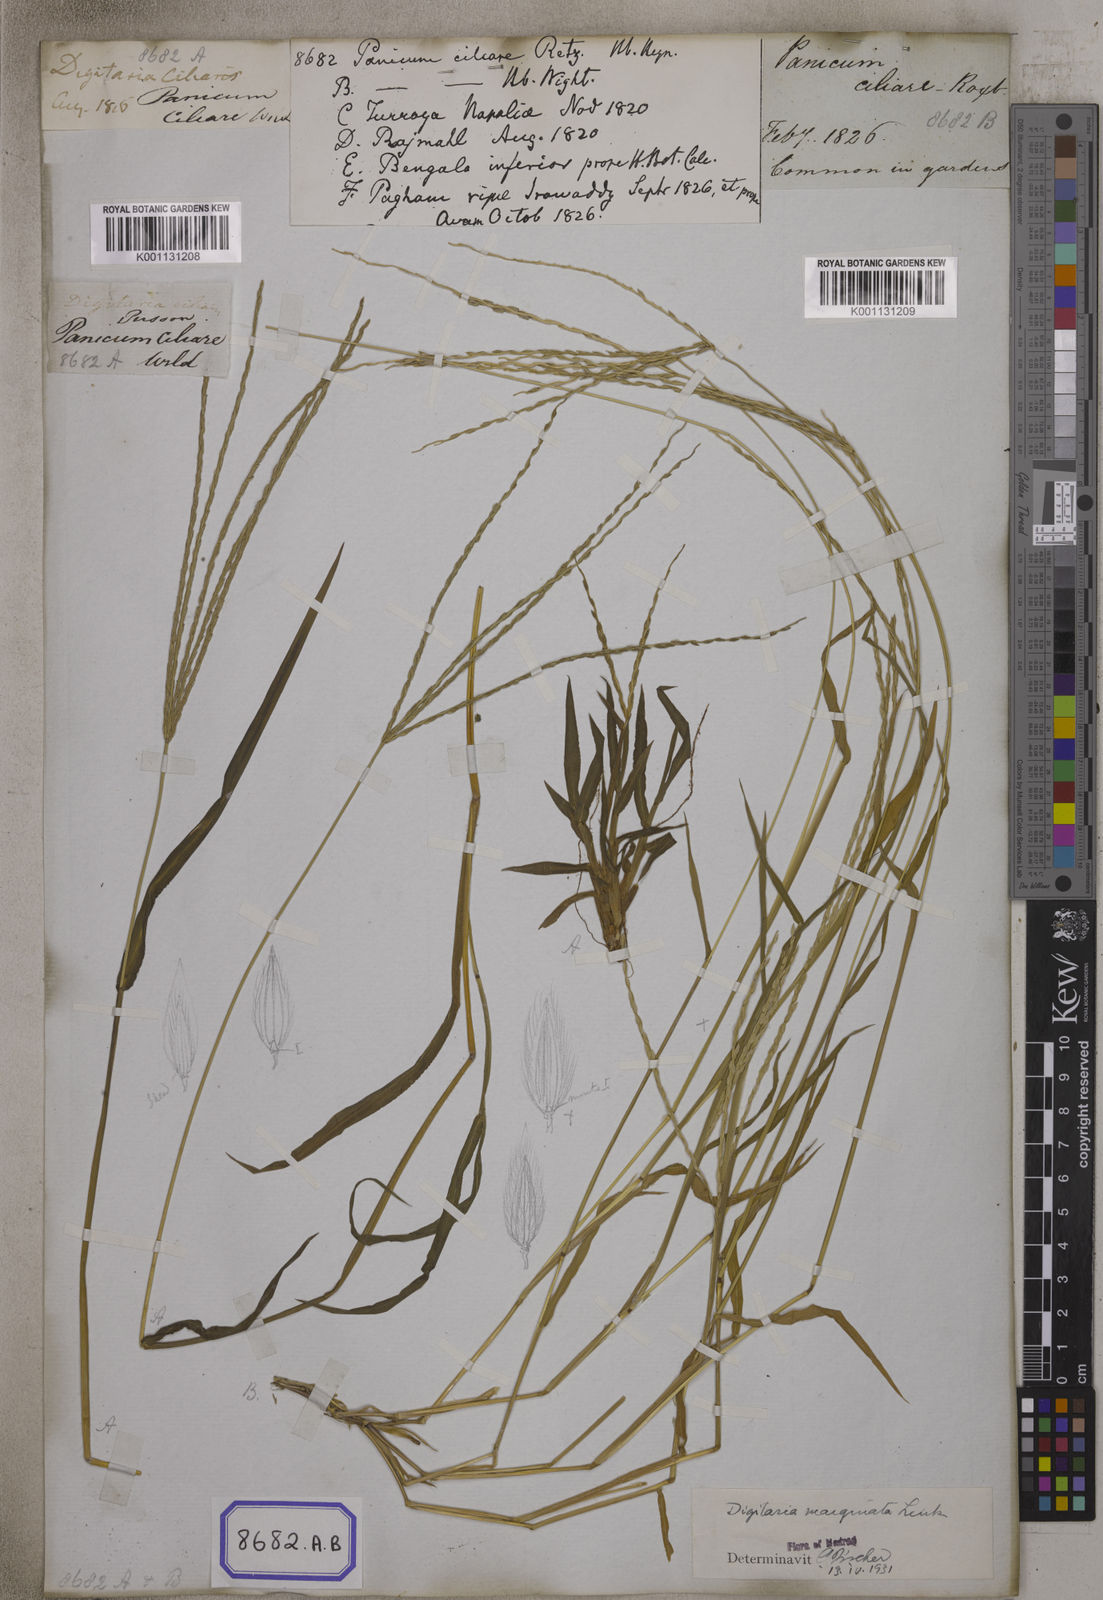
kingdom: Plantae
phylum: Tracheophyta
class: Liliopsida
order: Poales
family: Poaceae
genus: Digitaria
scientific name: Digitaria ciliaris
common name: Tropical finger-grass
